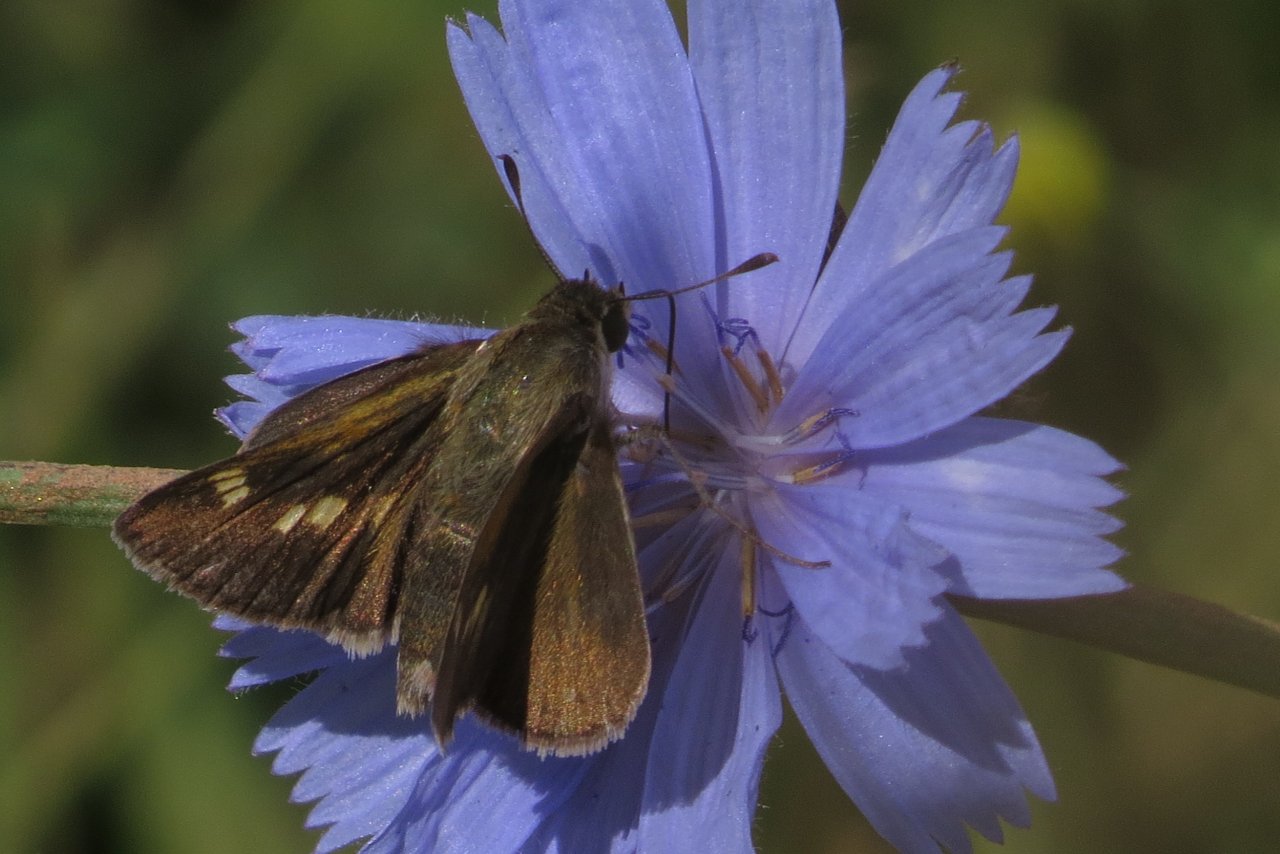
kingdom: Animalia
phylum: Arthropoda
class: Insecta
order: Lepidoptera
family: Hesperiidae
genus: Polites
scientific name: Polites themistocles
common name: Tawny-edged Skipper
